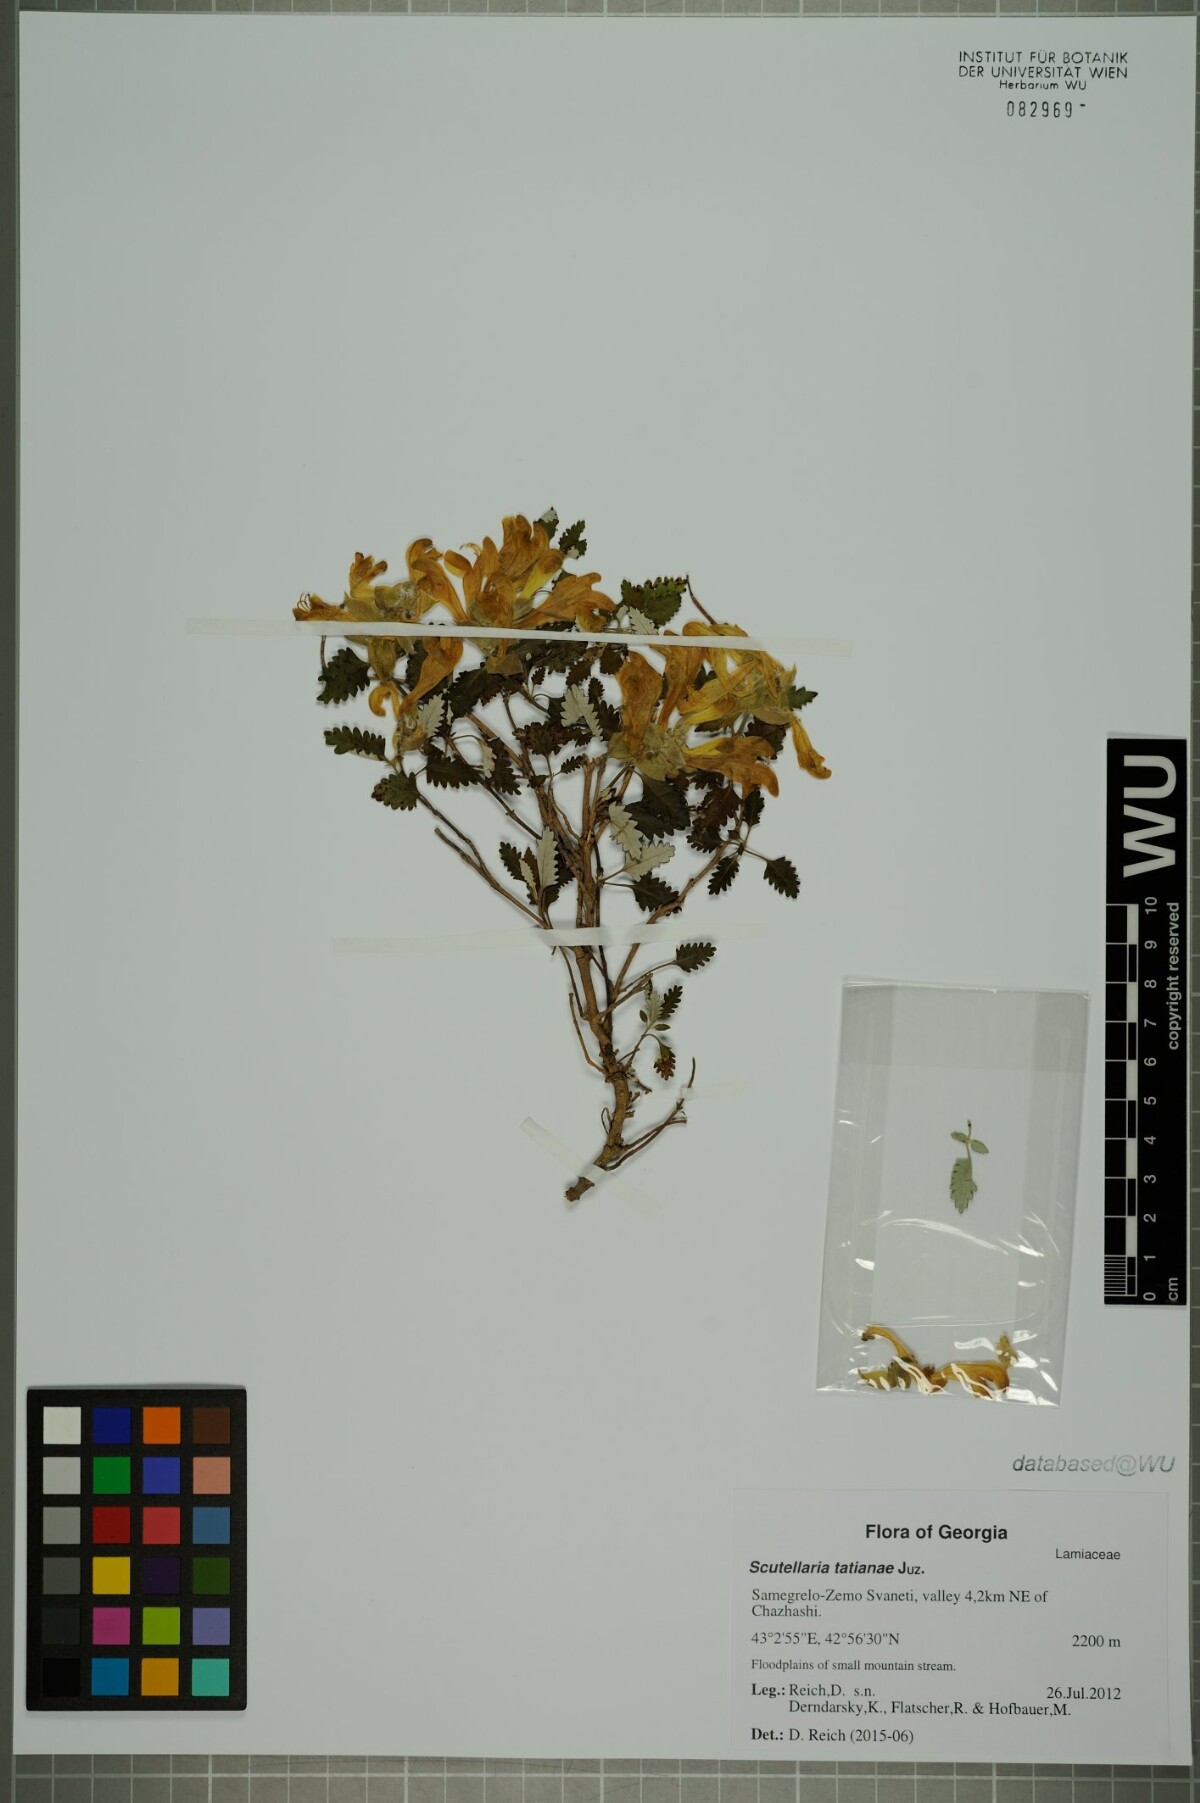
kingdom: Plantae
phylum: Tracheophyta
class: Magnoliopsida
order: Lamiales
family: Lamiaceae
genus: Scutellaria
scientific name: Scutellaria tatianae
